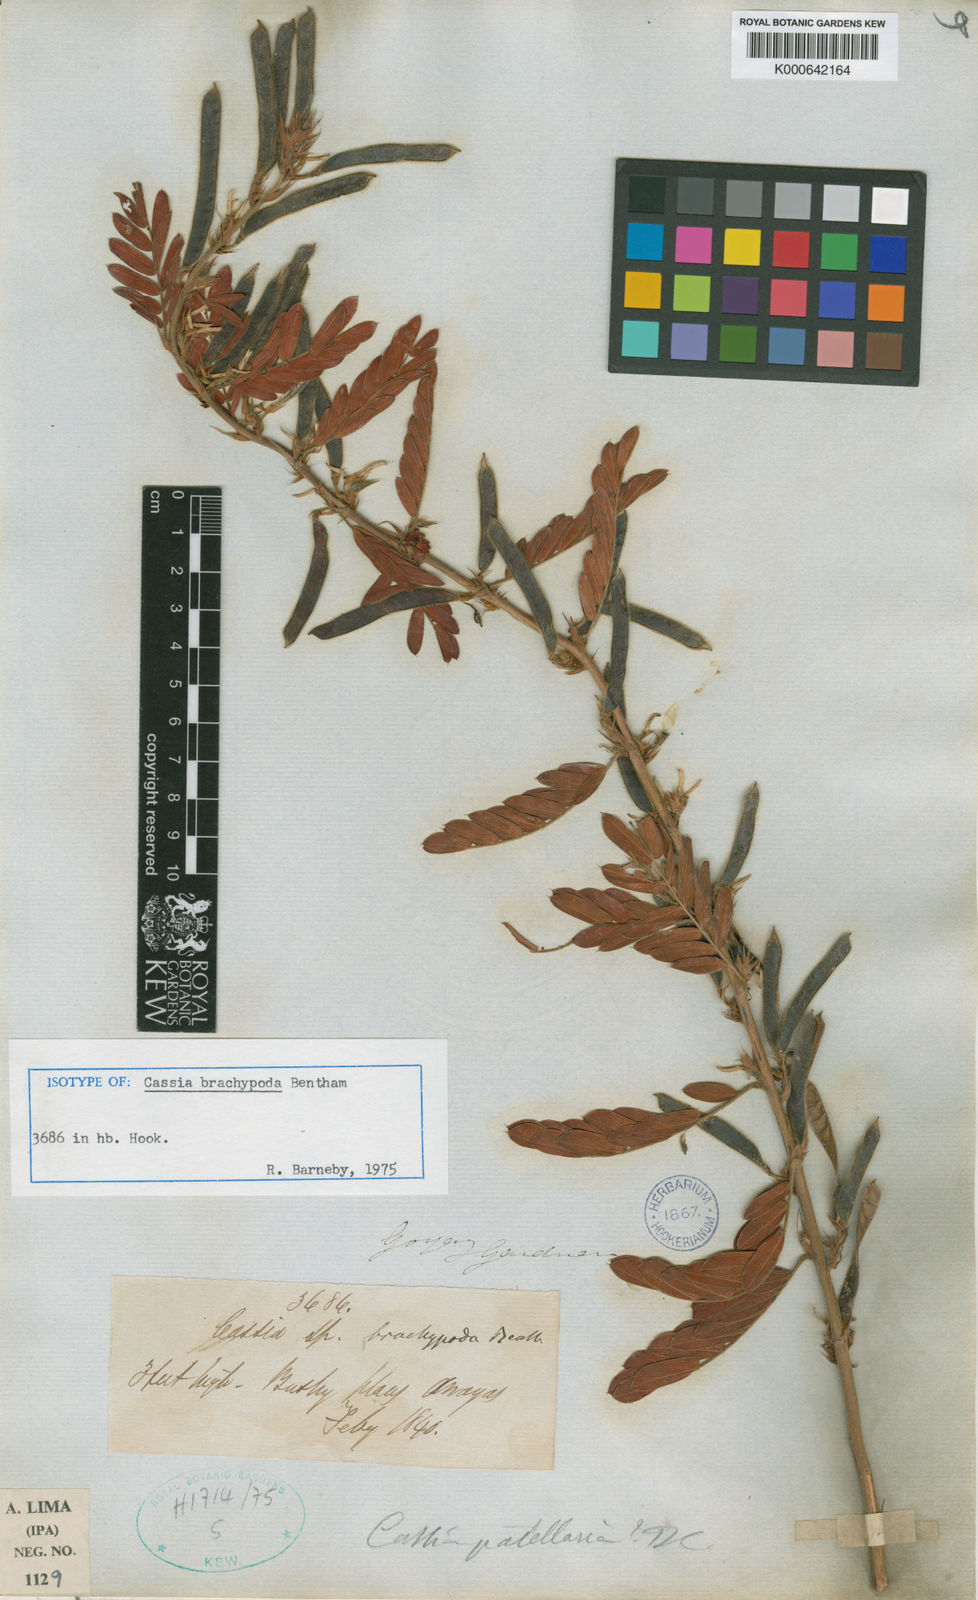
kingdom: Plantae
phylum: Tracheophyta
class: Magnoliopsida
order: Fabales
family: Fabaceae
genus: Chamaecrista
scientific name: Chamaecrista nictitans
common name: Sensitive cassia
